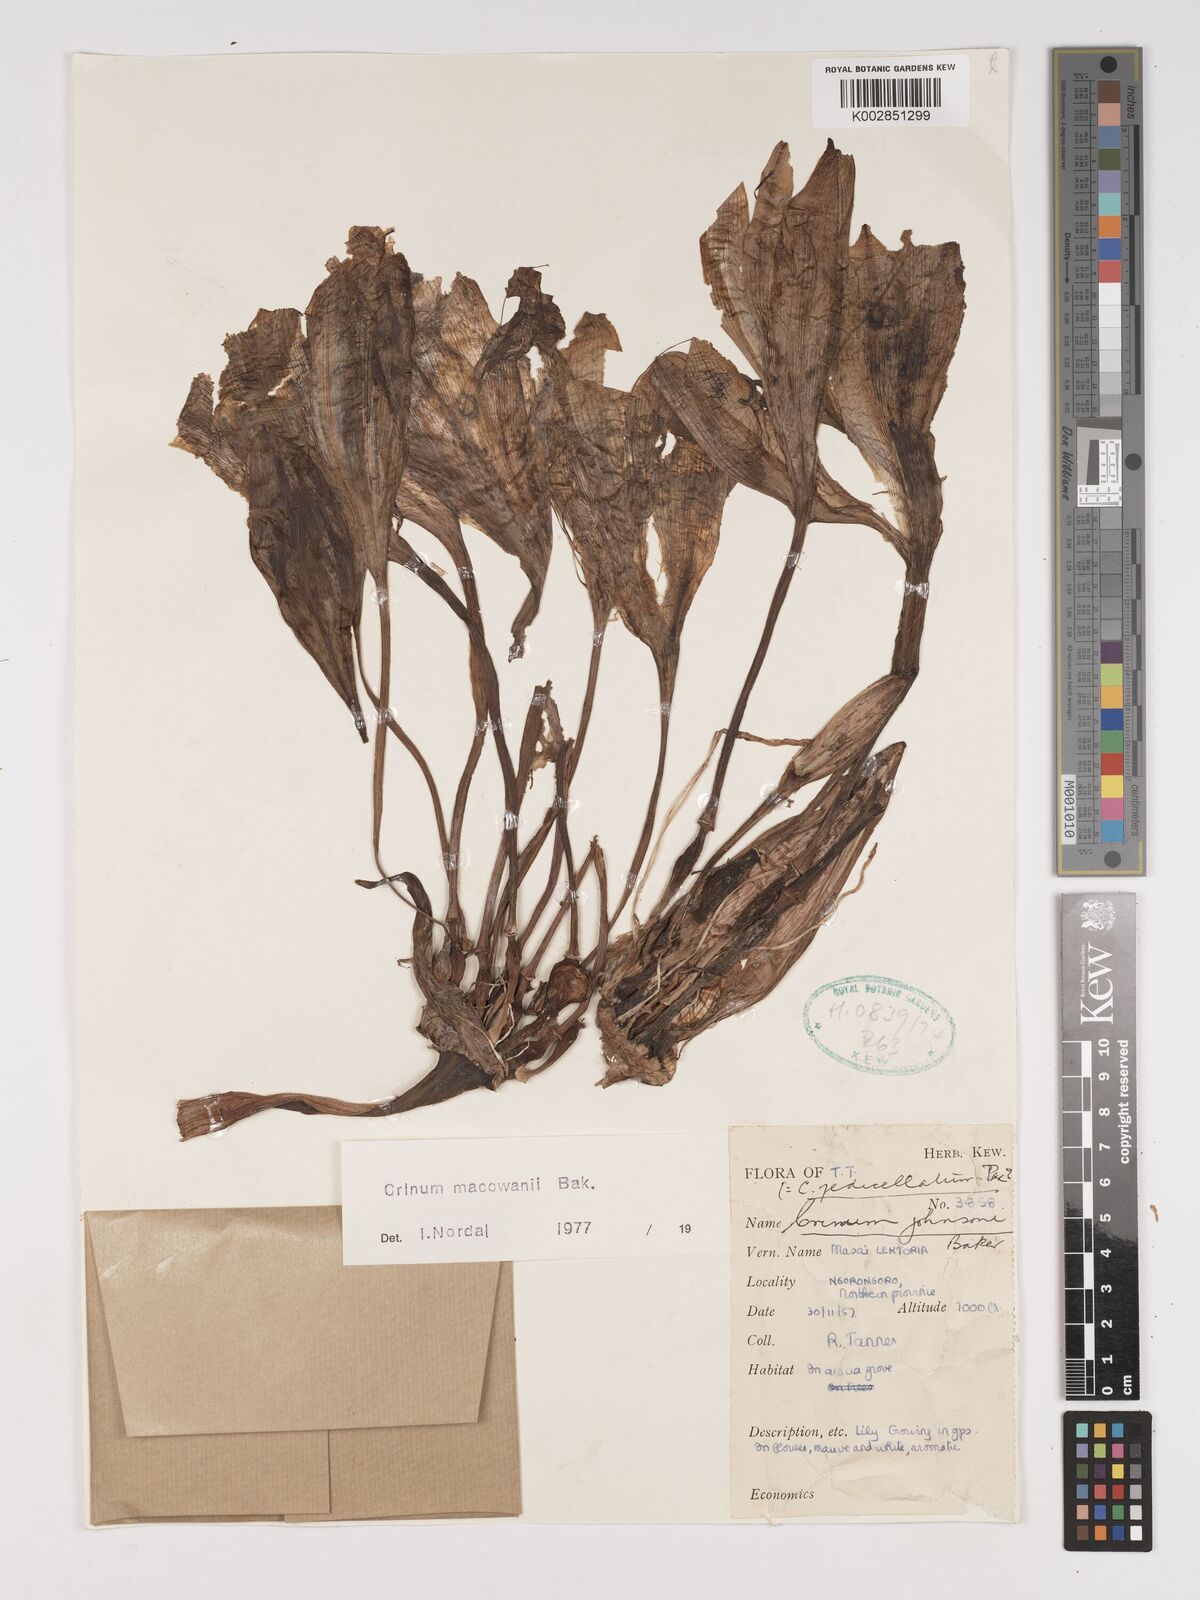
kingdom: Plantae
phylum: Tracheophyta
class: Liliopsida
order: Asparagales
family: Amaryllidaceae
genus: Crinum
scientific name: Crinum macowanii
